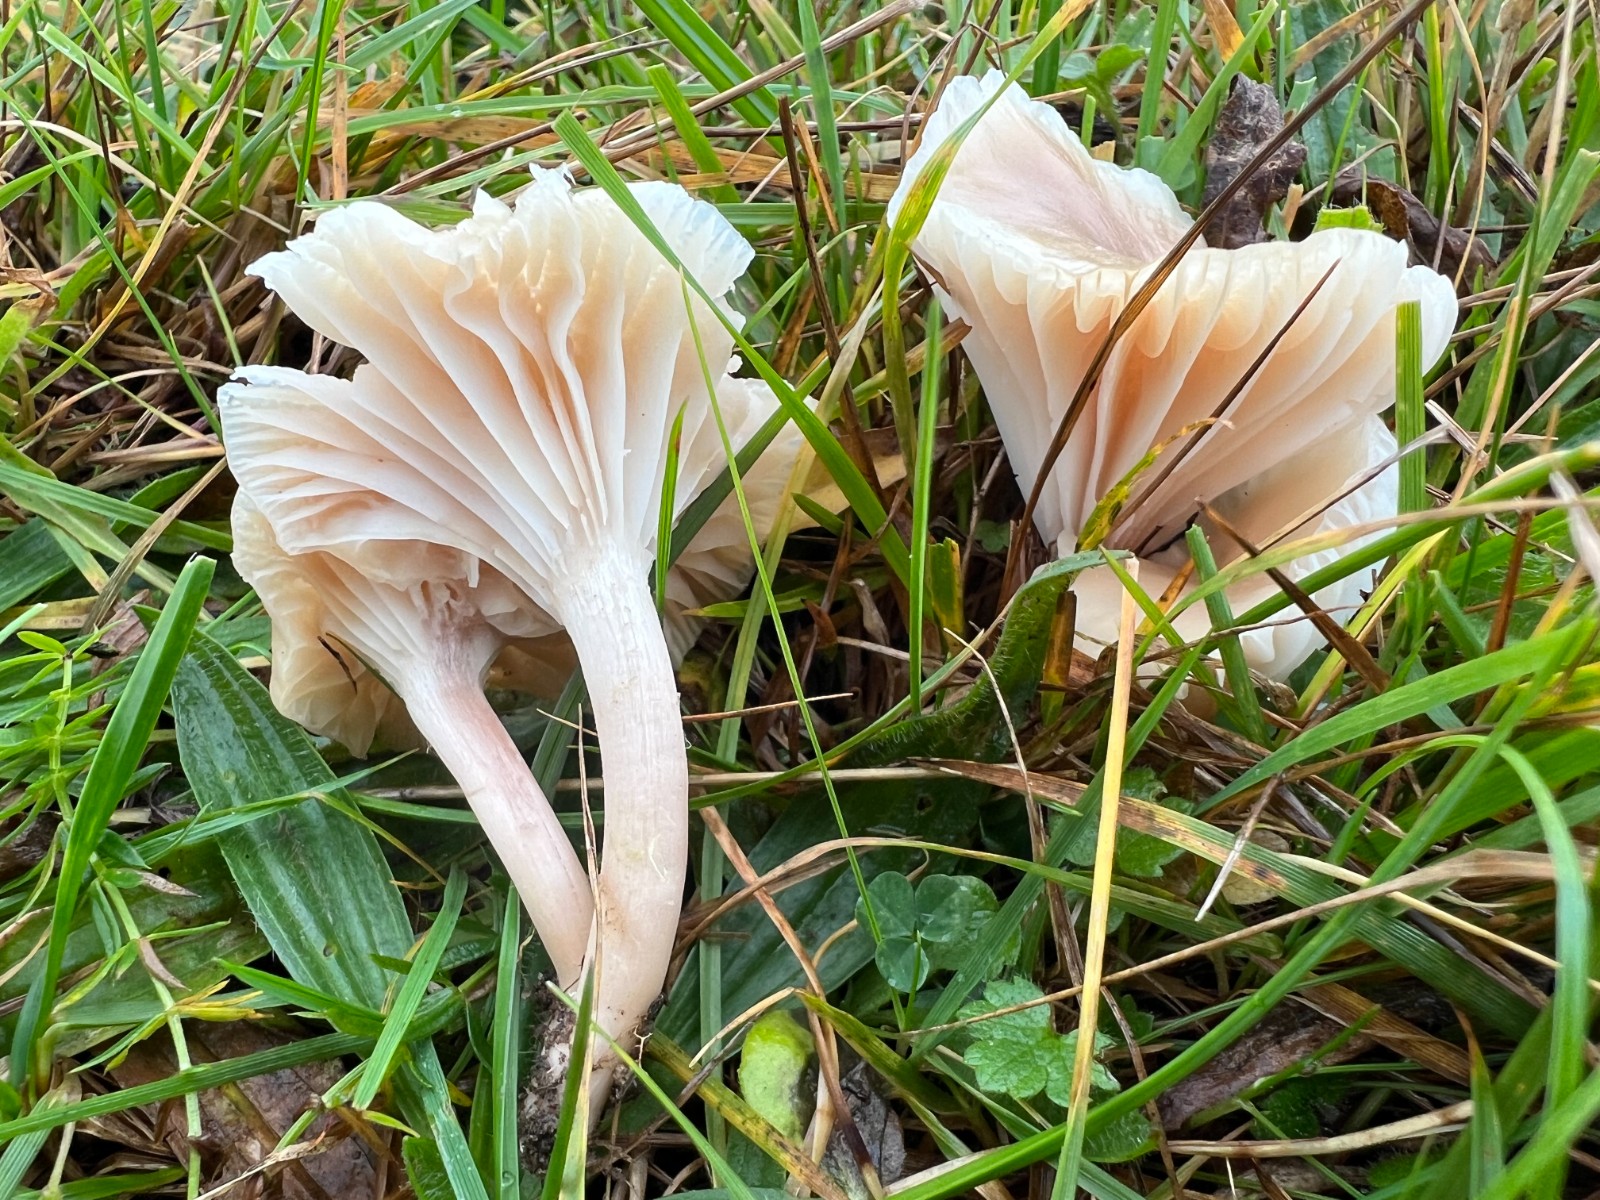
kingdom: Fungi
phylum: Basidiomycota
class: Agaricomycetes
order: Agaricales
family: Hygrophoraceae
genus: Cuphophyllus
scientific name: Cuphophyllus virgineus
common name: isabella-vokshat
